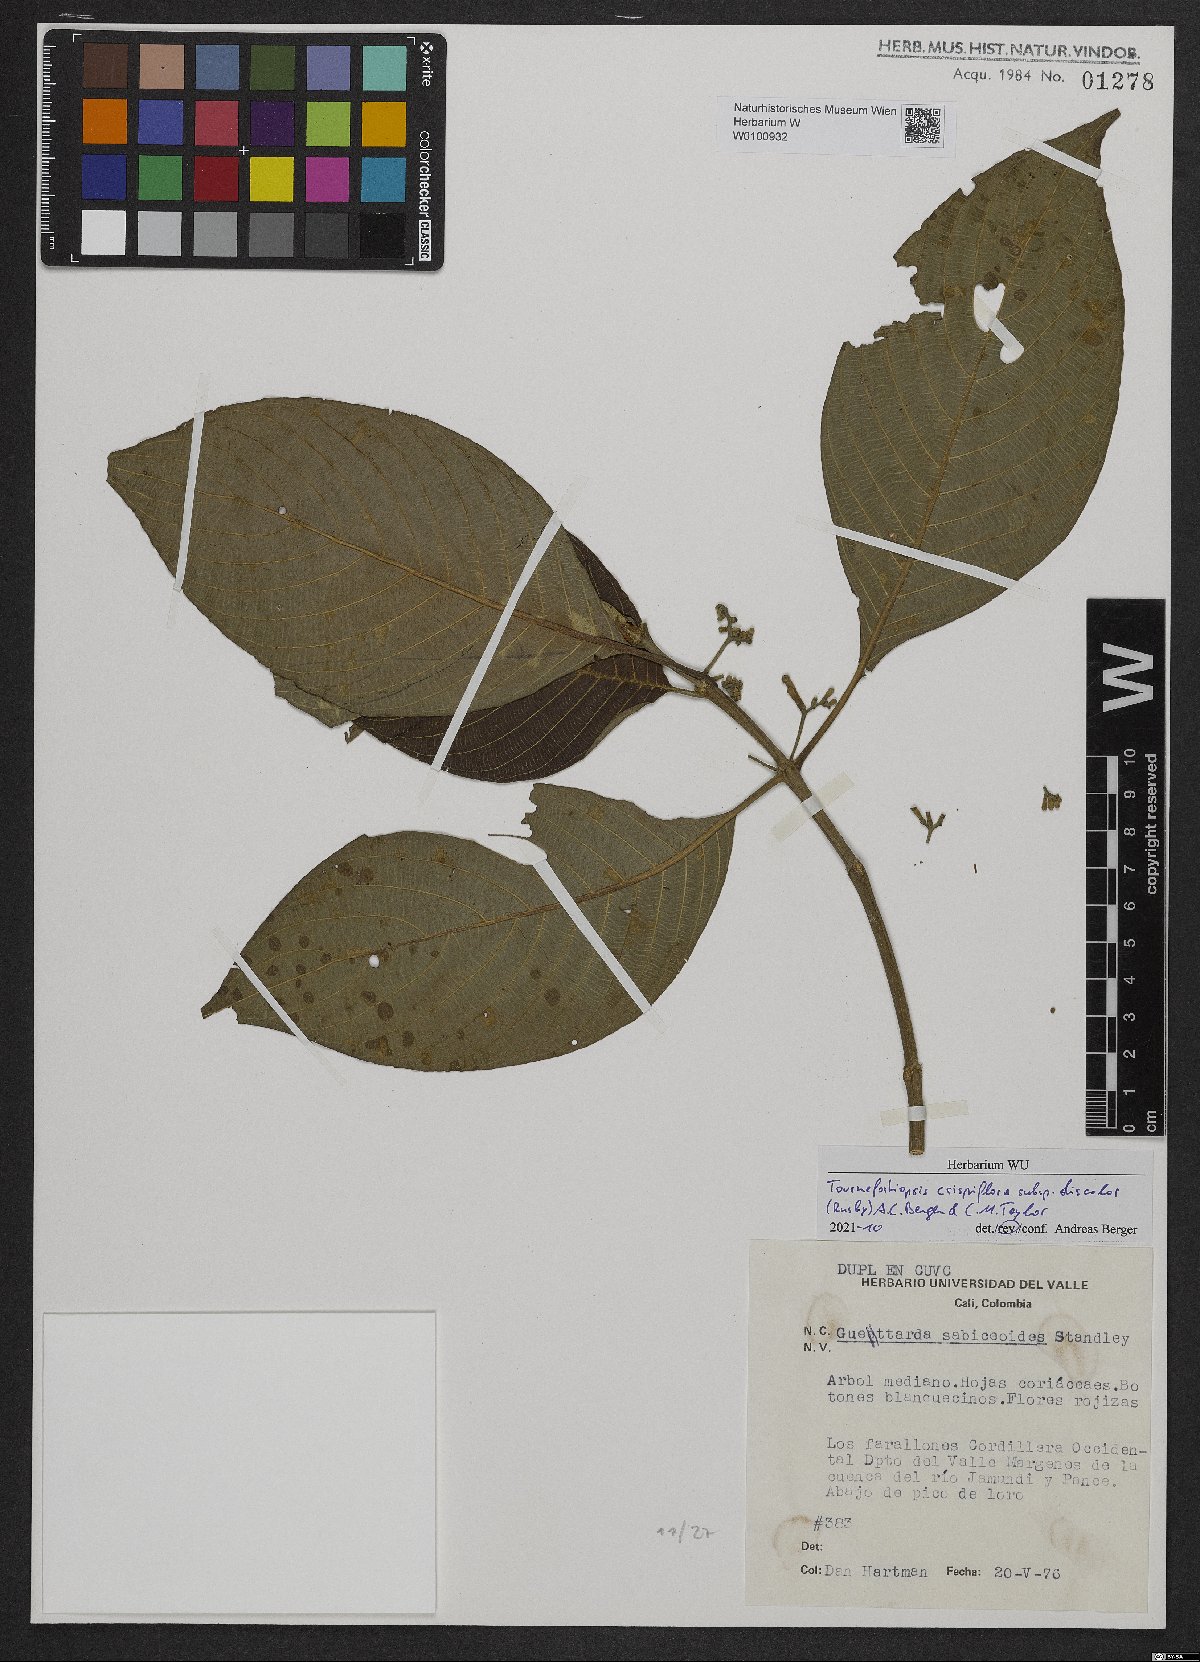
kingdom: Plantae
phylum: Tracheophyta
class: Magnoliopsida
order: Gentianales
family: Rubiaceae
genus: Tournefortiopsis
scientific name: Tournefortiopsis crispiflora
